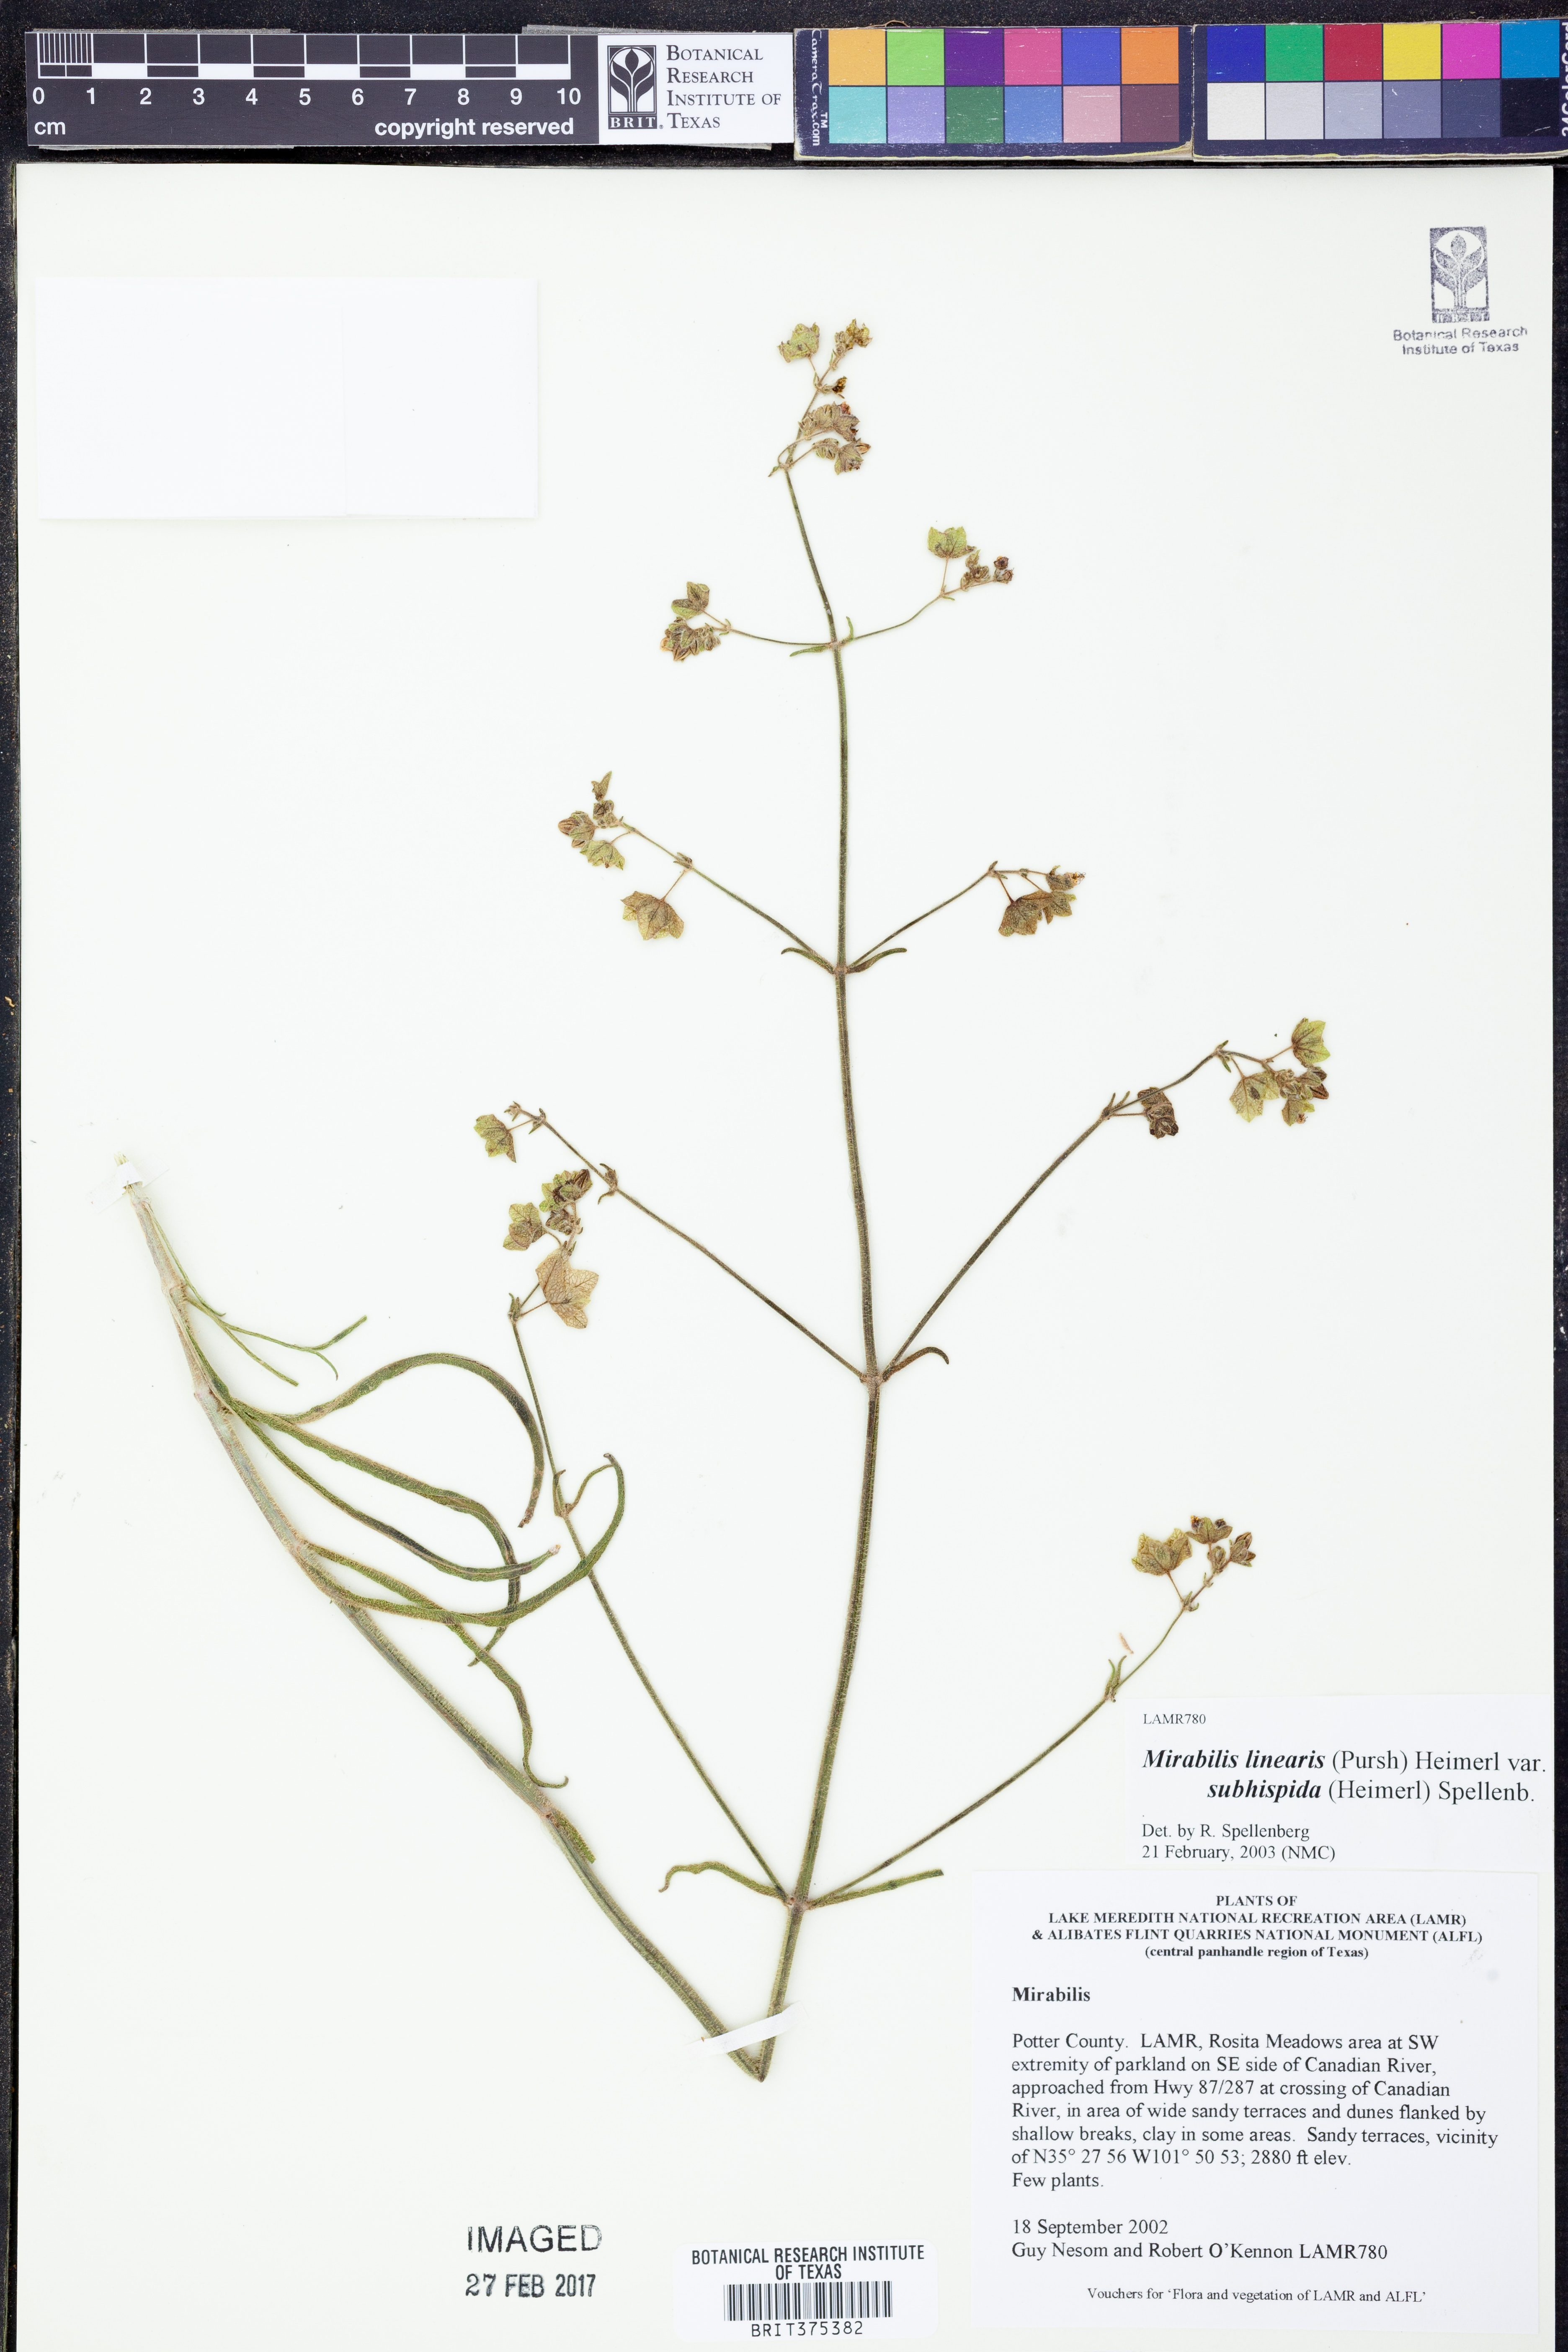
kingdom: Plantae
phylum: Tracheophyta
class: Magnoliopsida
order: Caryophyllales
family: Nyctaginaceae
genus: Mirabilis
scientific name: Mirabilis linearis
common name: Linear-leaved four-o'clock
